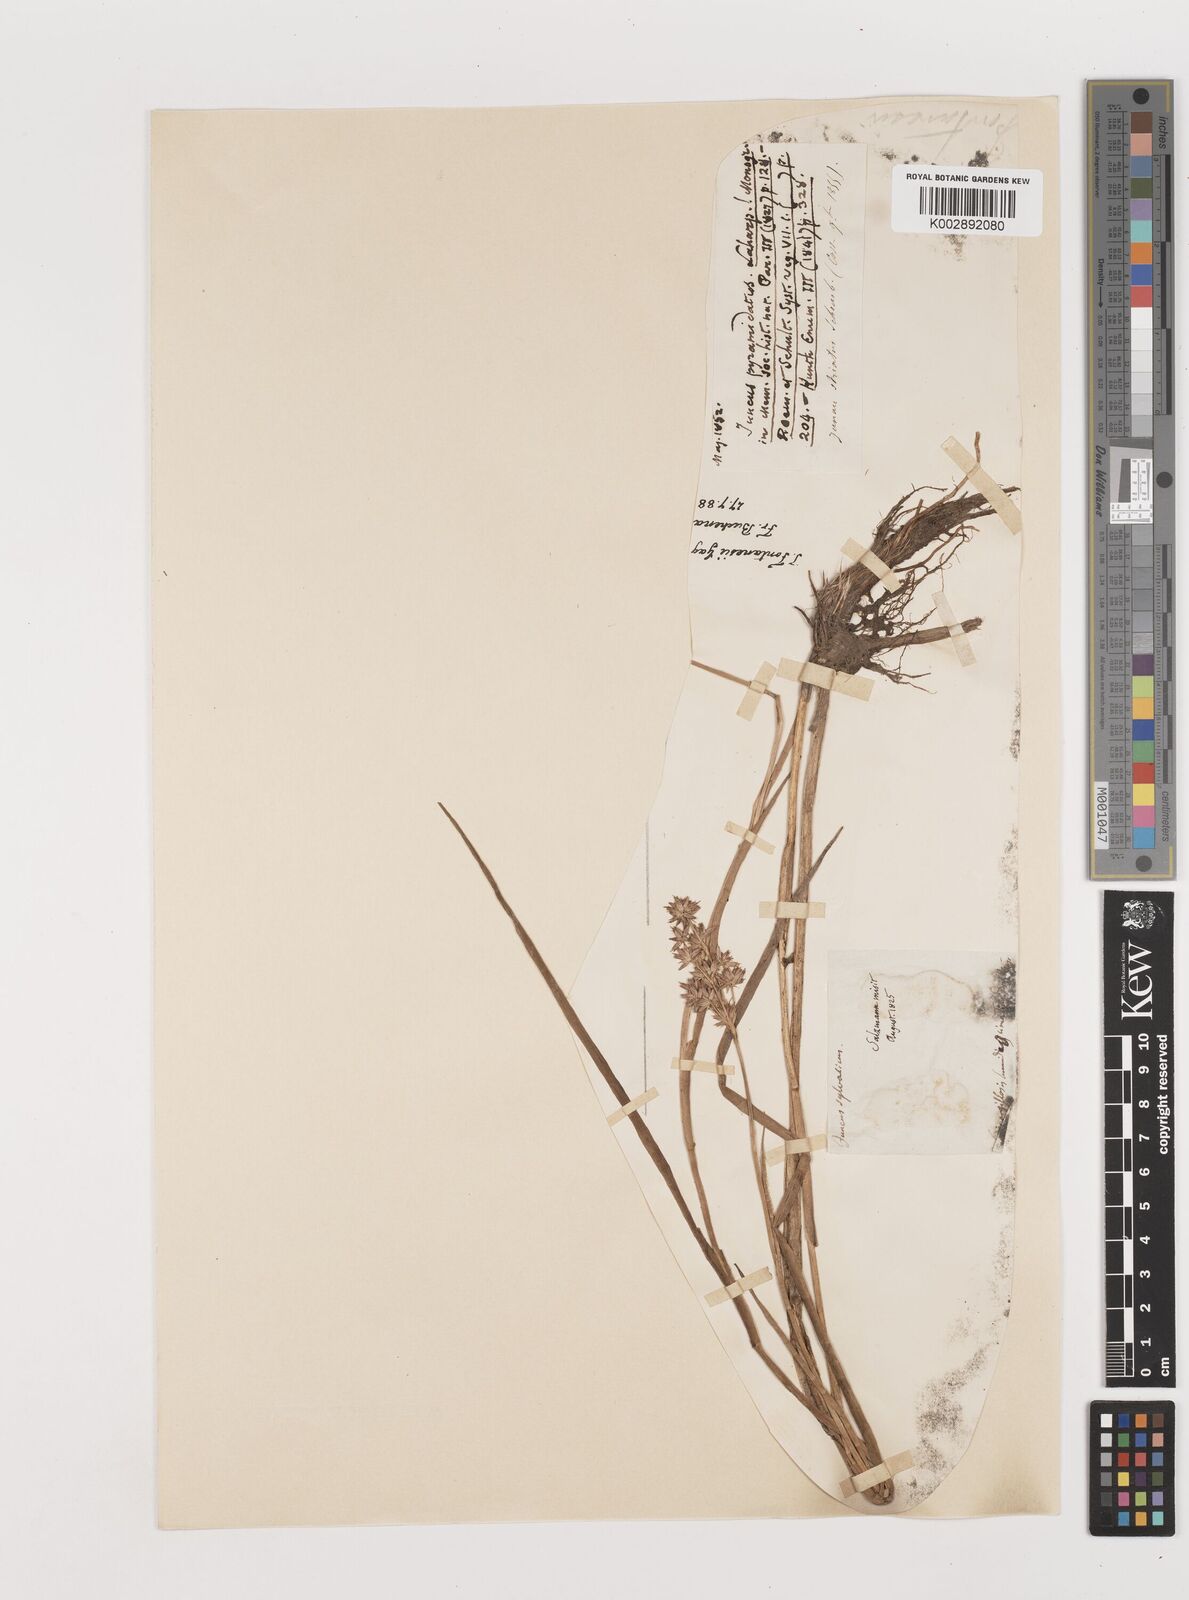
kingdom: Plantae
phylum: Tracheophyta
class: Liliopsida
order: Poales
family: Juncaceae
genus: Juncus
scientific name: Juncus fontanesii
